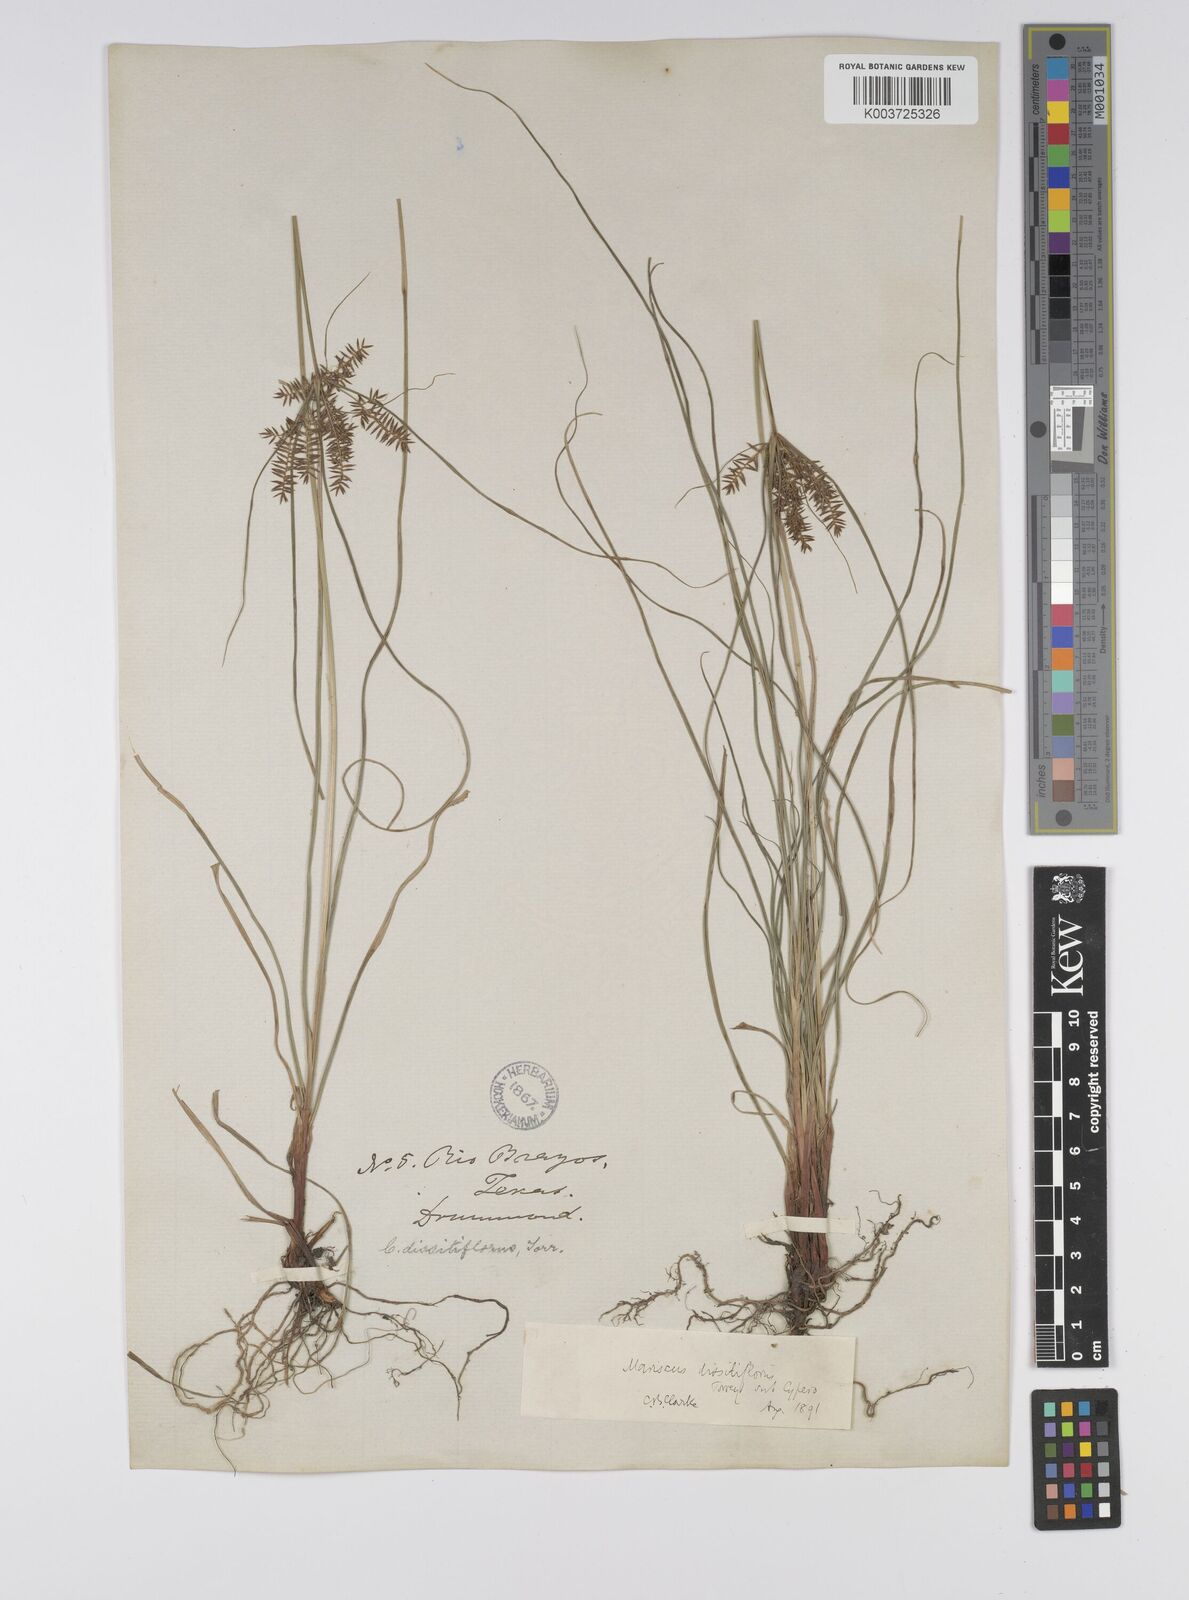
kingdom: Plantae
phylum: Tracheophyta
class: Liliopsida
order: Poales
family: Cyperaceae
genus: Cyperus
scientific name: Cyperus
